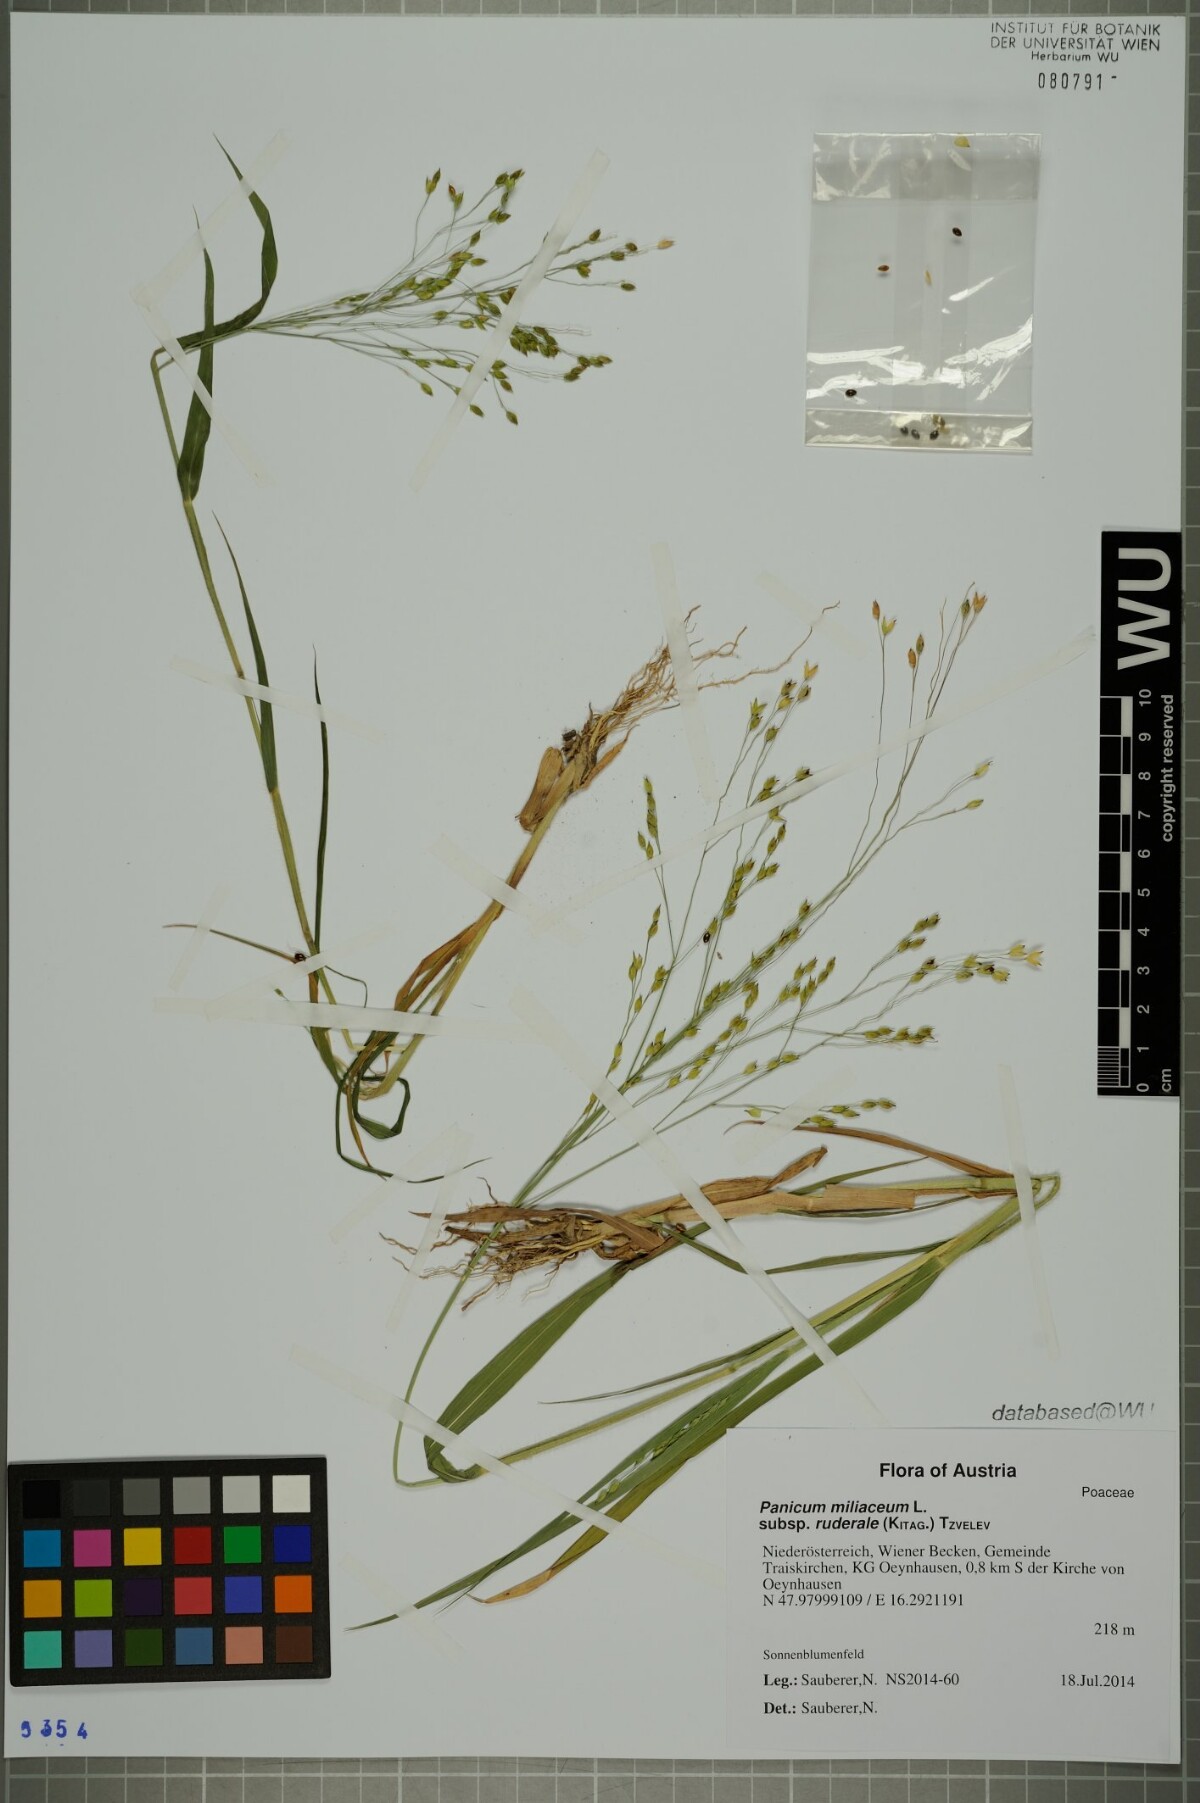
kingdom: Plantae
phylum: Tracheophyta
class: Liliopsida
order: Poales
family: Poaceae
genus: Panicum
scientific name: Panicum miliaceum
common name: Common millet
